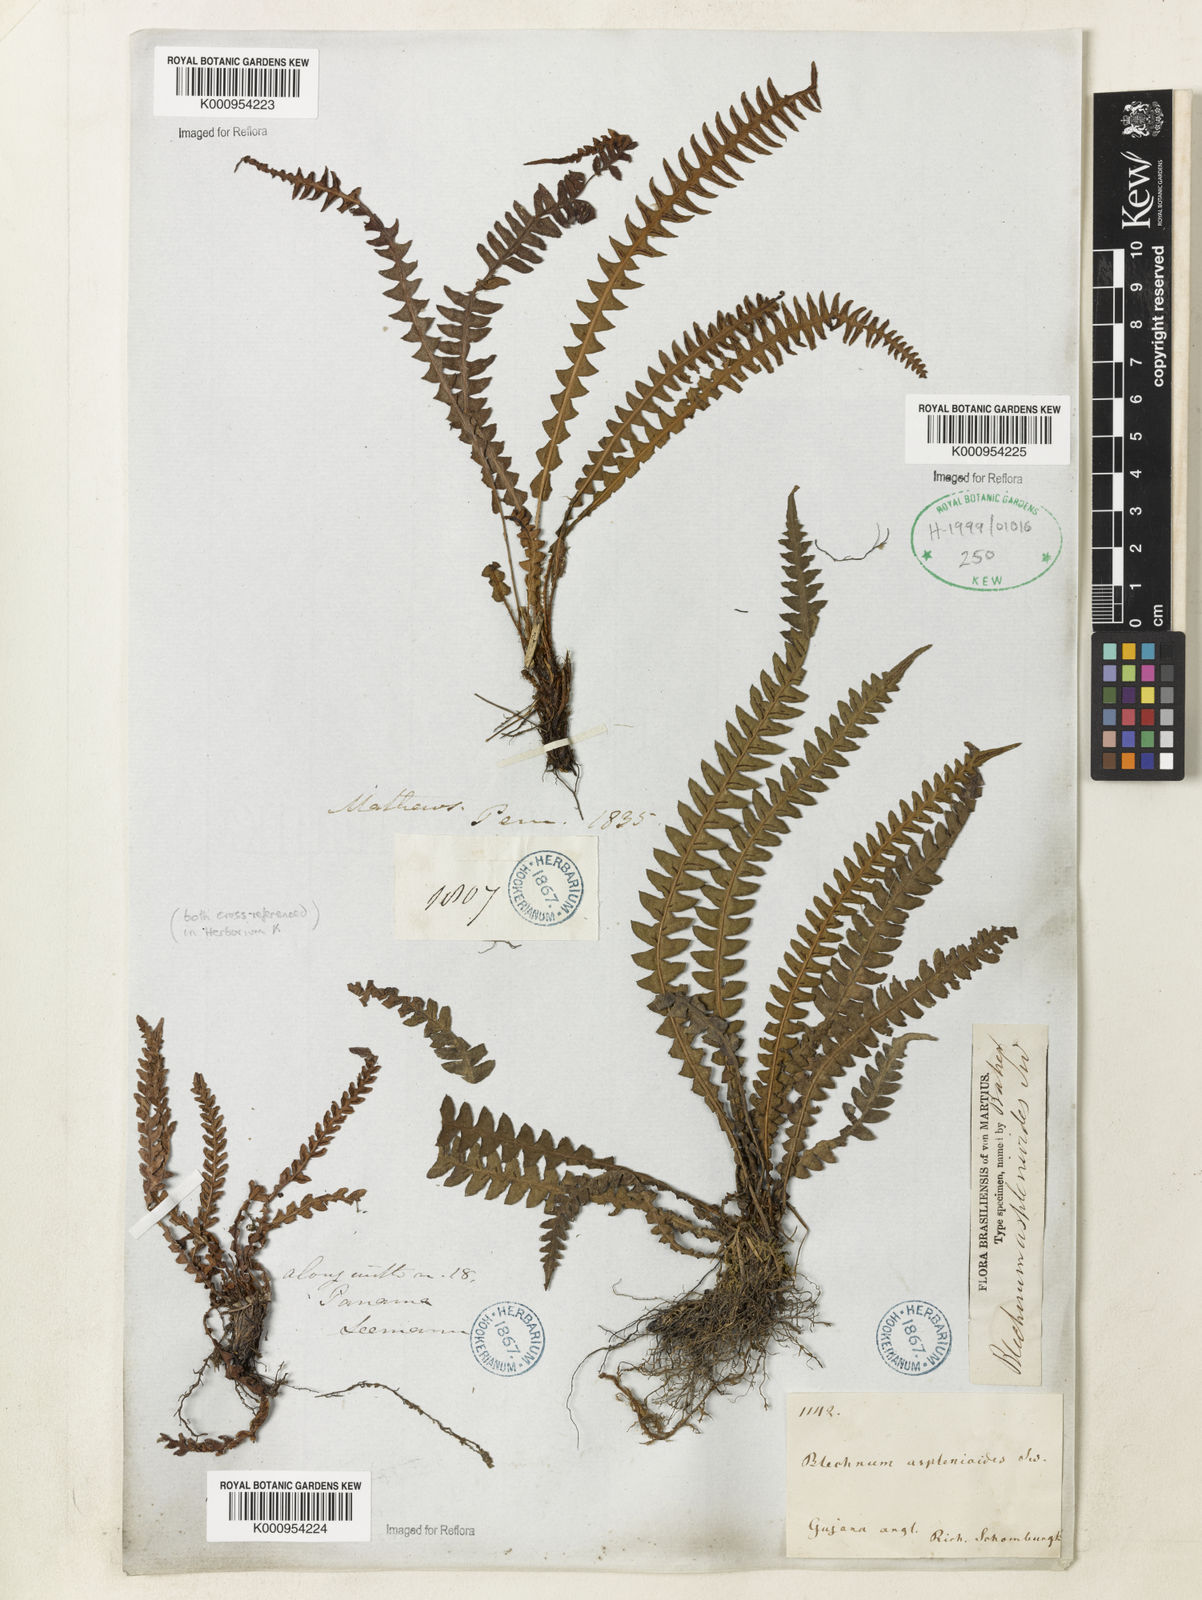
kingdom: Plantae
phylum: Tracheophyta
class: Polypodiopsida
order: Polypodiales
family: Blechnaceae
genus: Blechnum
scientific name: Blechnum asplenioides
